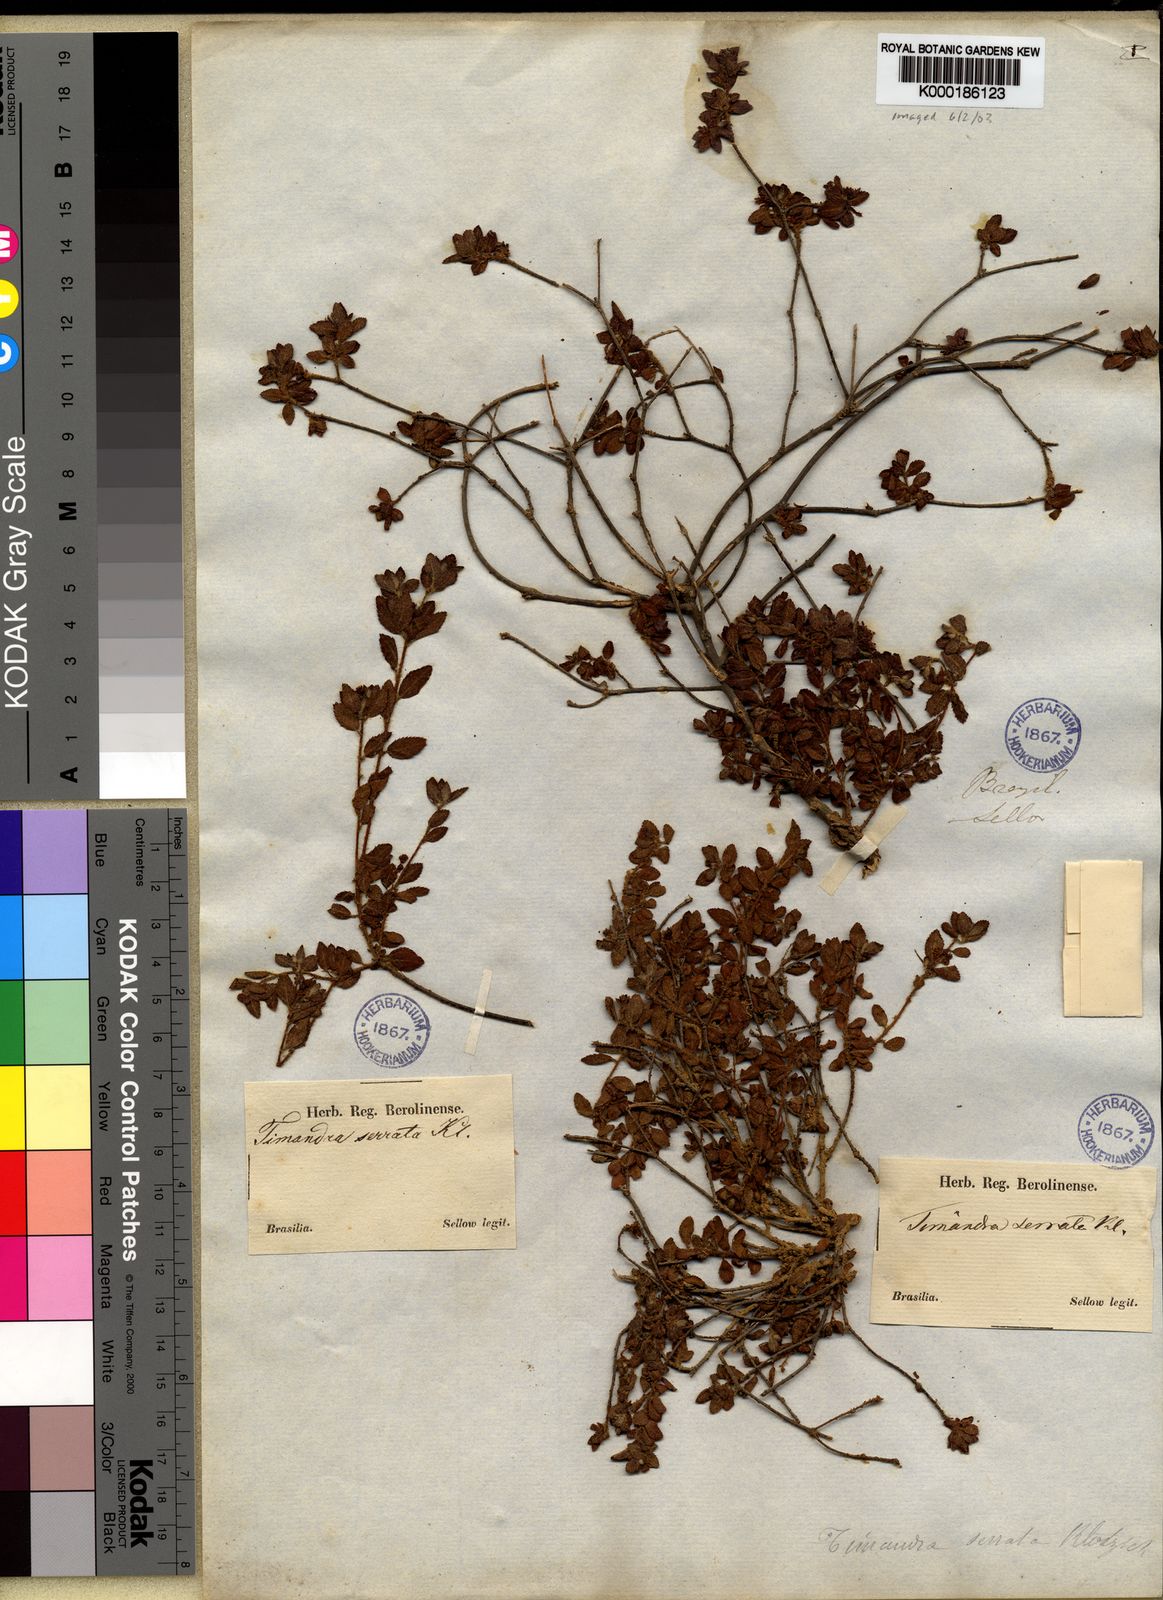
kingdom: Plantae
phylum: Tracheophyta
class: Magnoliopsida
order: Malpighiales
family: Euphorbiaceae
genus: Croton
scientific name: Croton serratus
